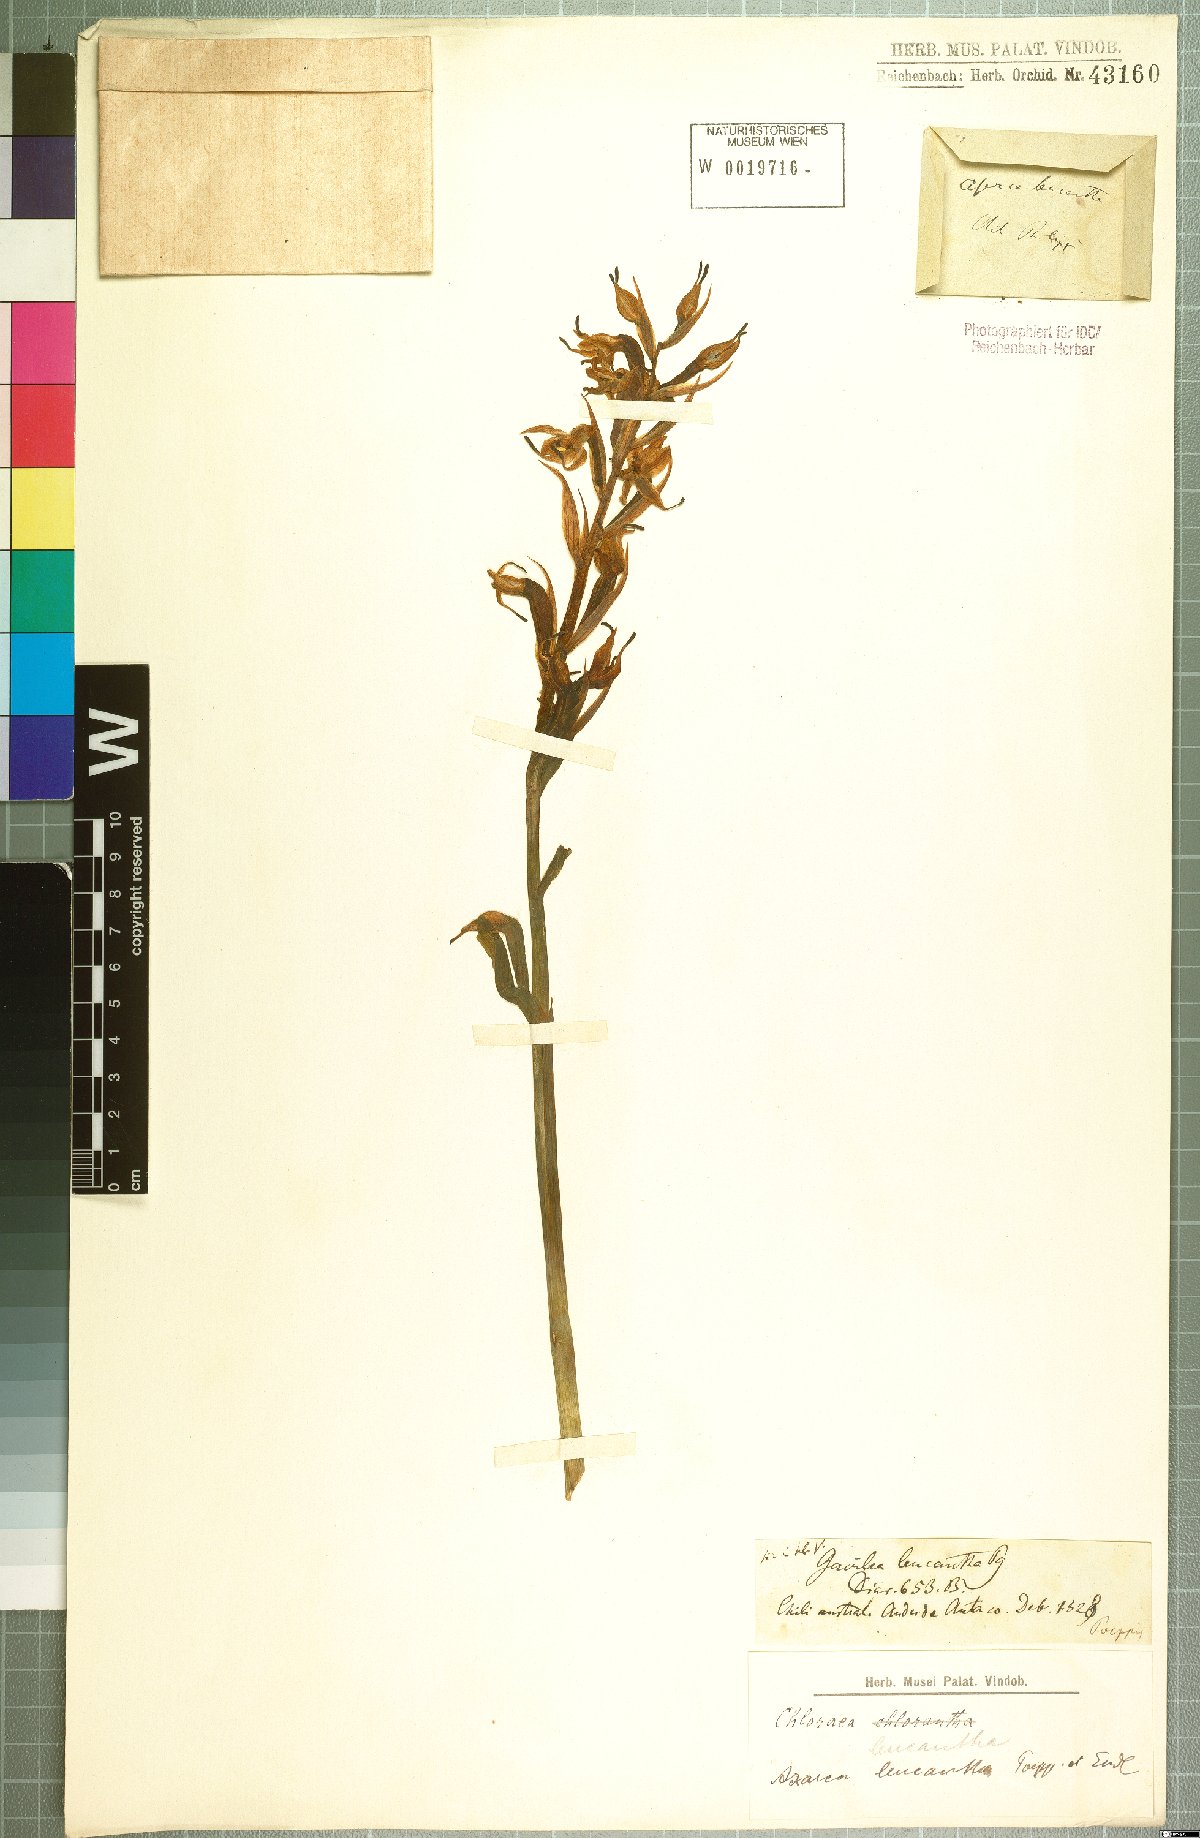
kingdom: Plantae
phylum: Tracheophyta
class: Liliopsida
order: Asparagales
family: Orchidaceae
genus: Gavilea
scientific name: Gavilea venosa
